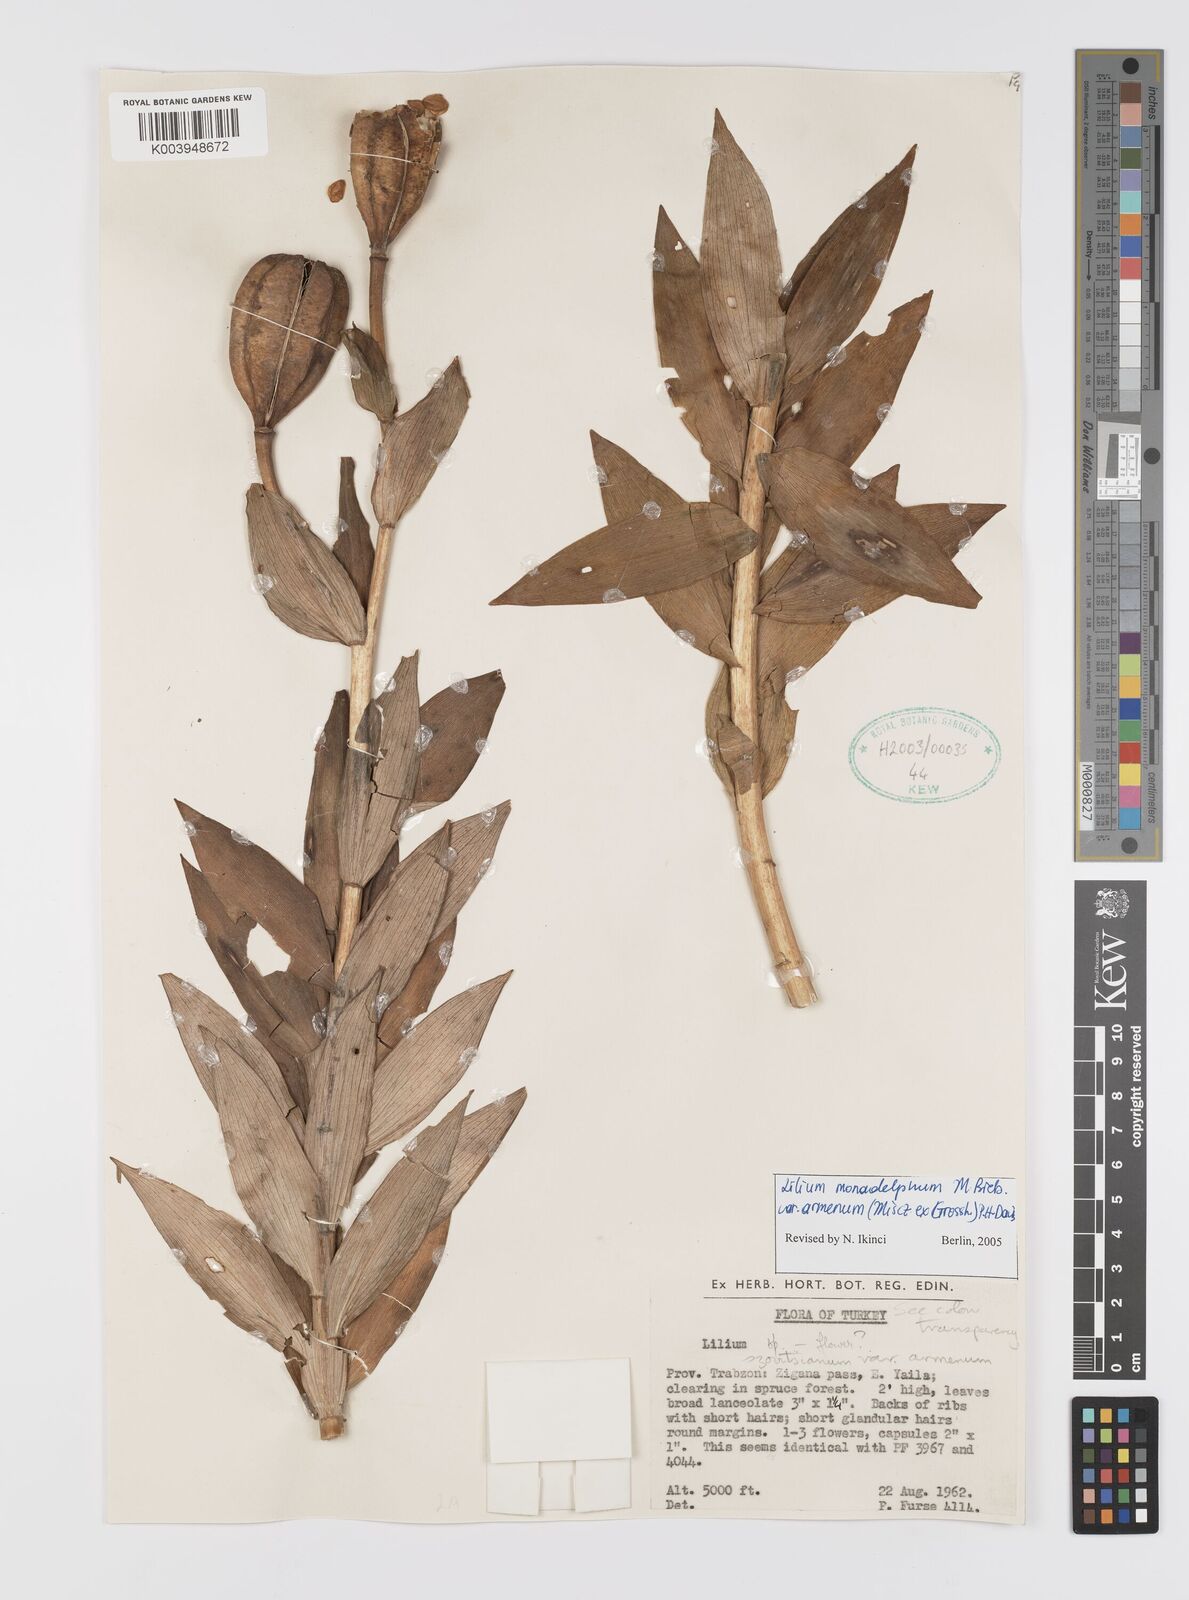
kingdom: Plantae
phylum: Tracheophyta
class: Liliopsida
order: Liliales
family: Liliaceae
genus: Lilium
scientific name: Lilium armenum
